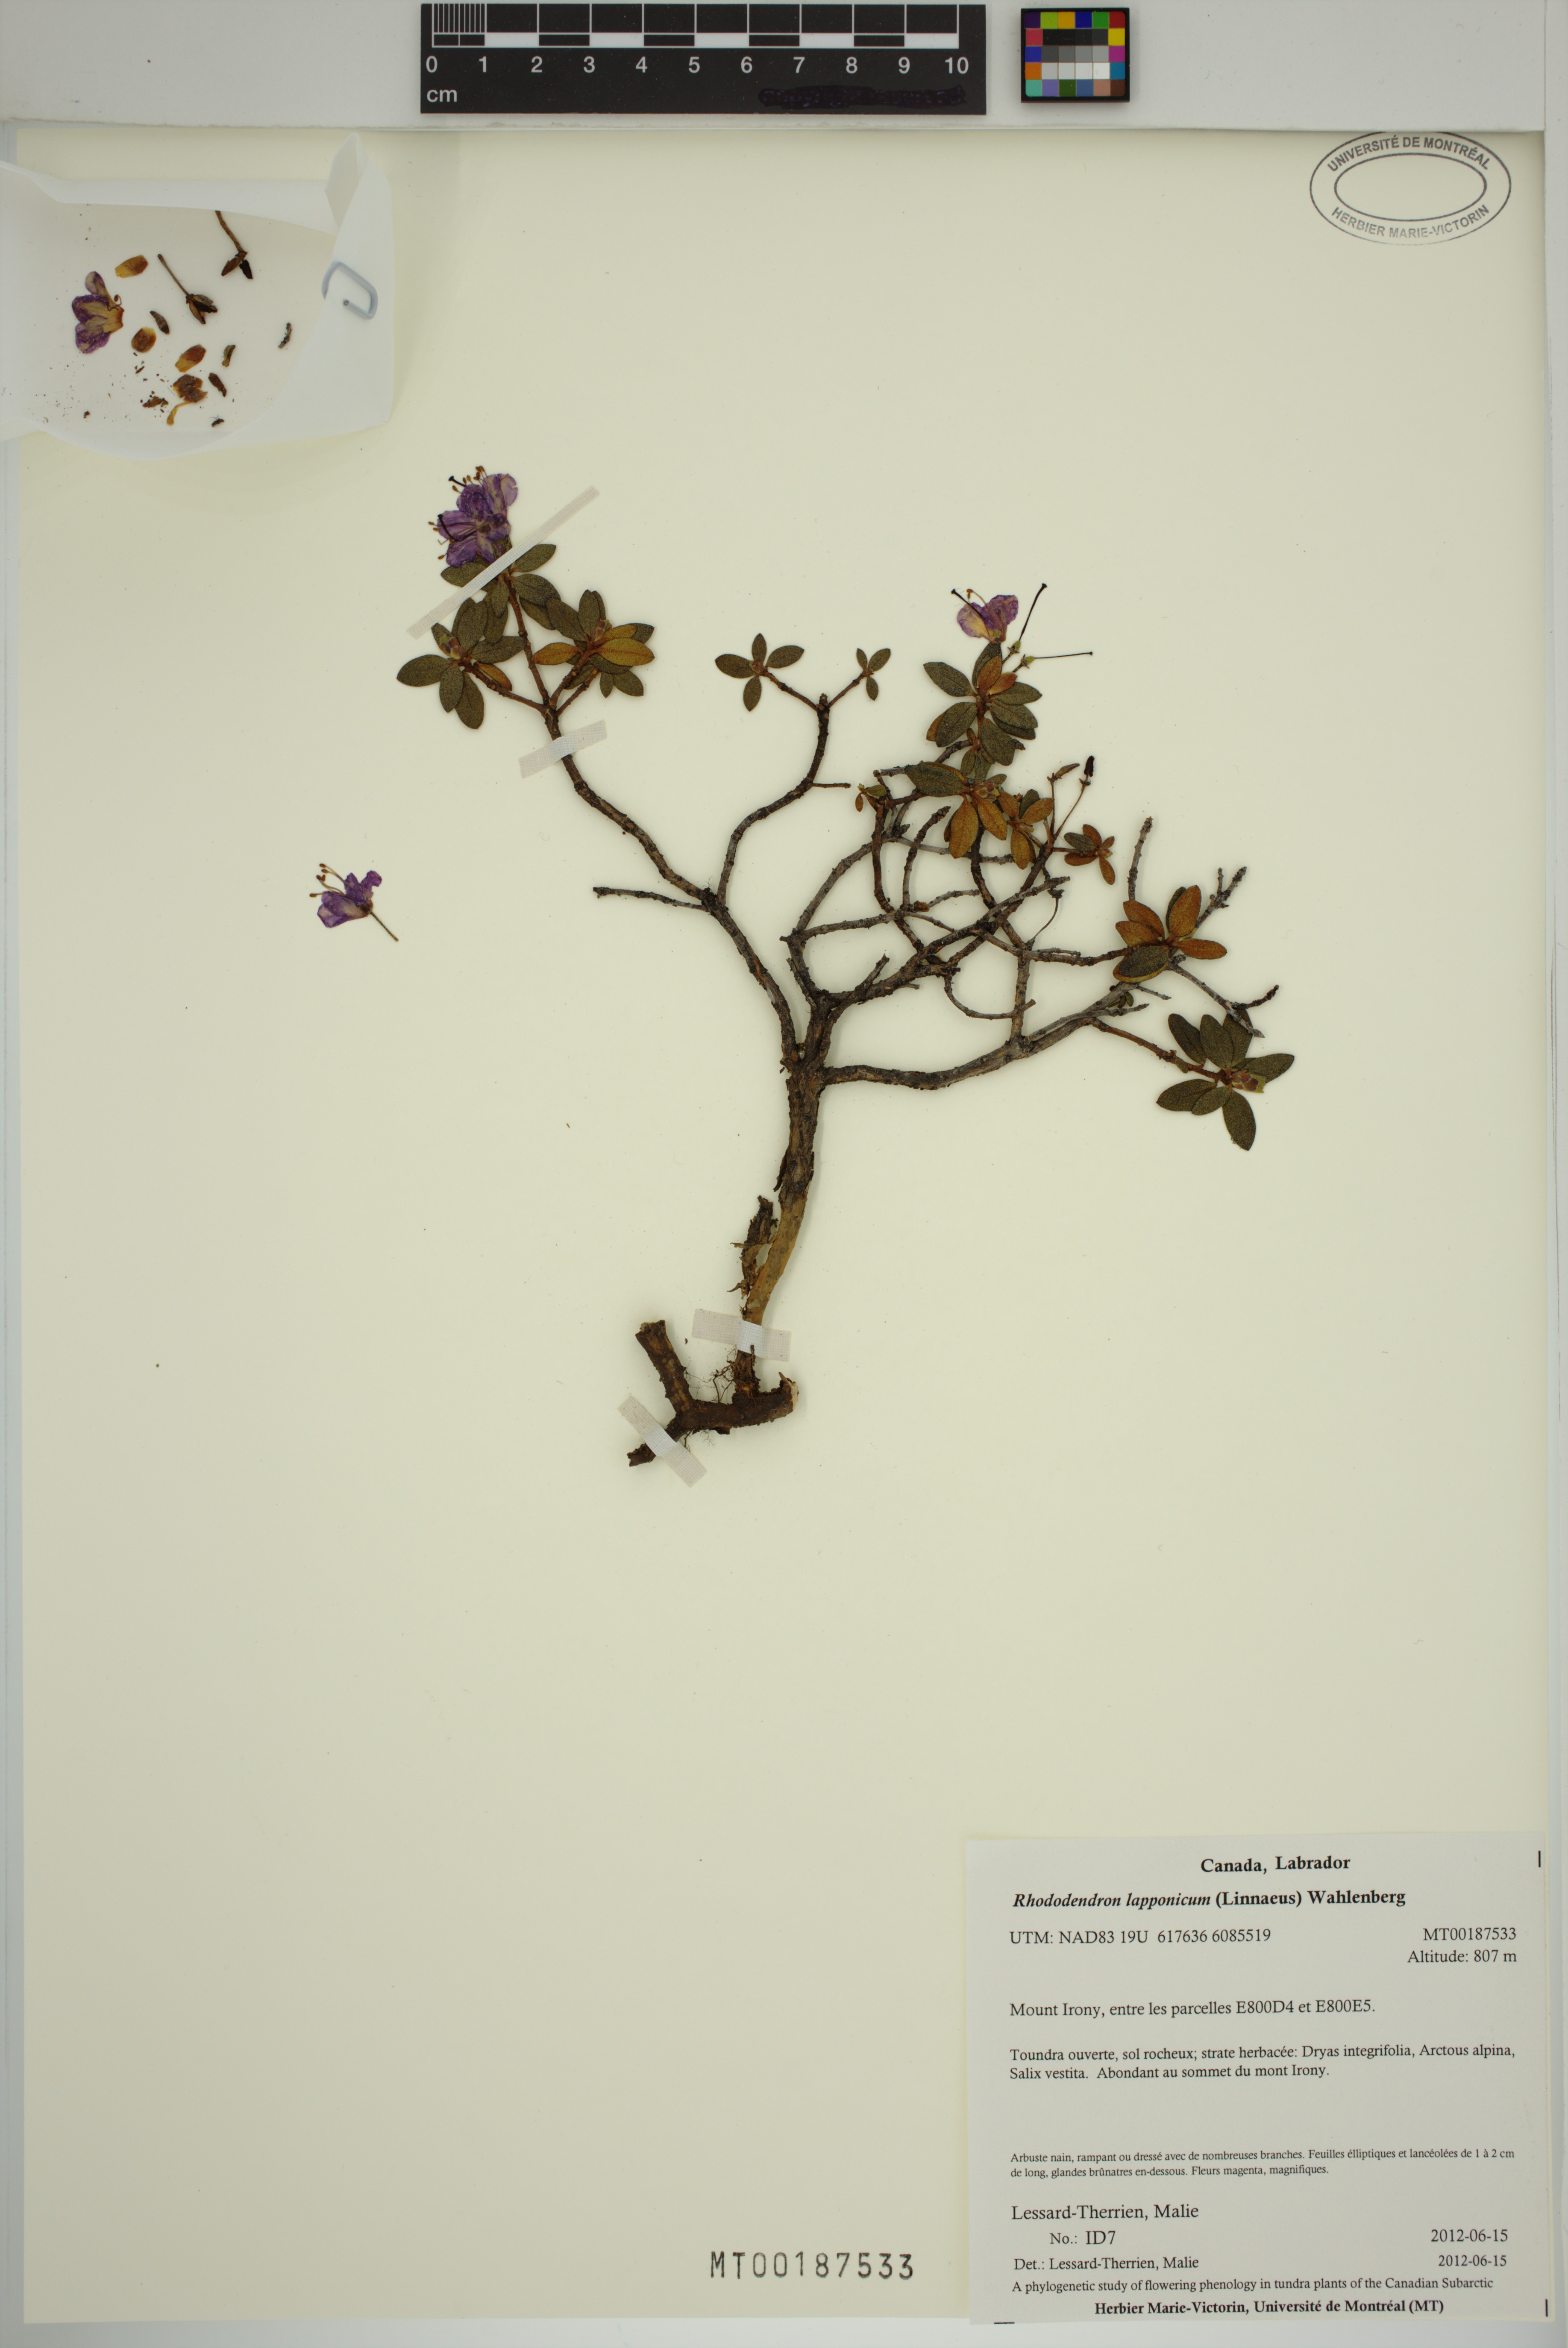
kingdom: Plantae
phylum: Tracheophyta
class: Magnoliopsida
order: Ericales
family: Ericaceae
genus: Rhododendron
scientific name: Rhododendron lapponicum
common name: Lapland rhododendron
